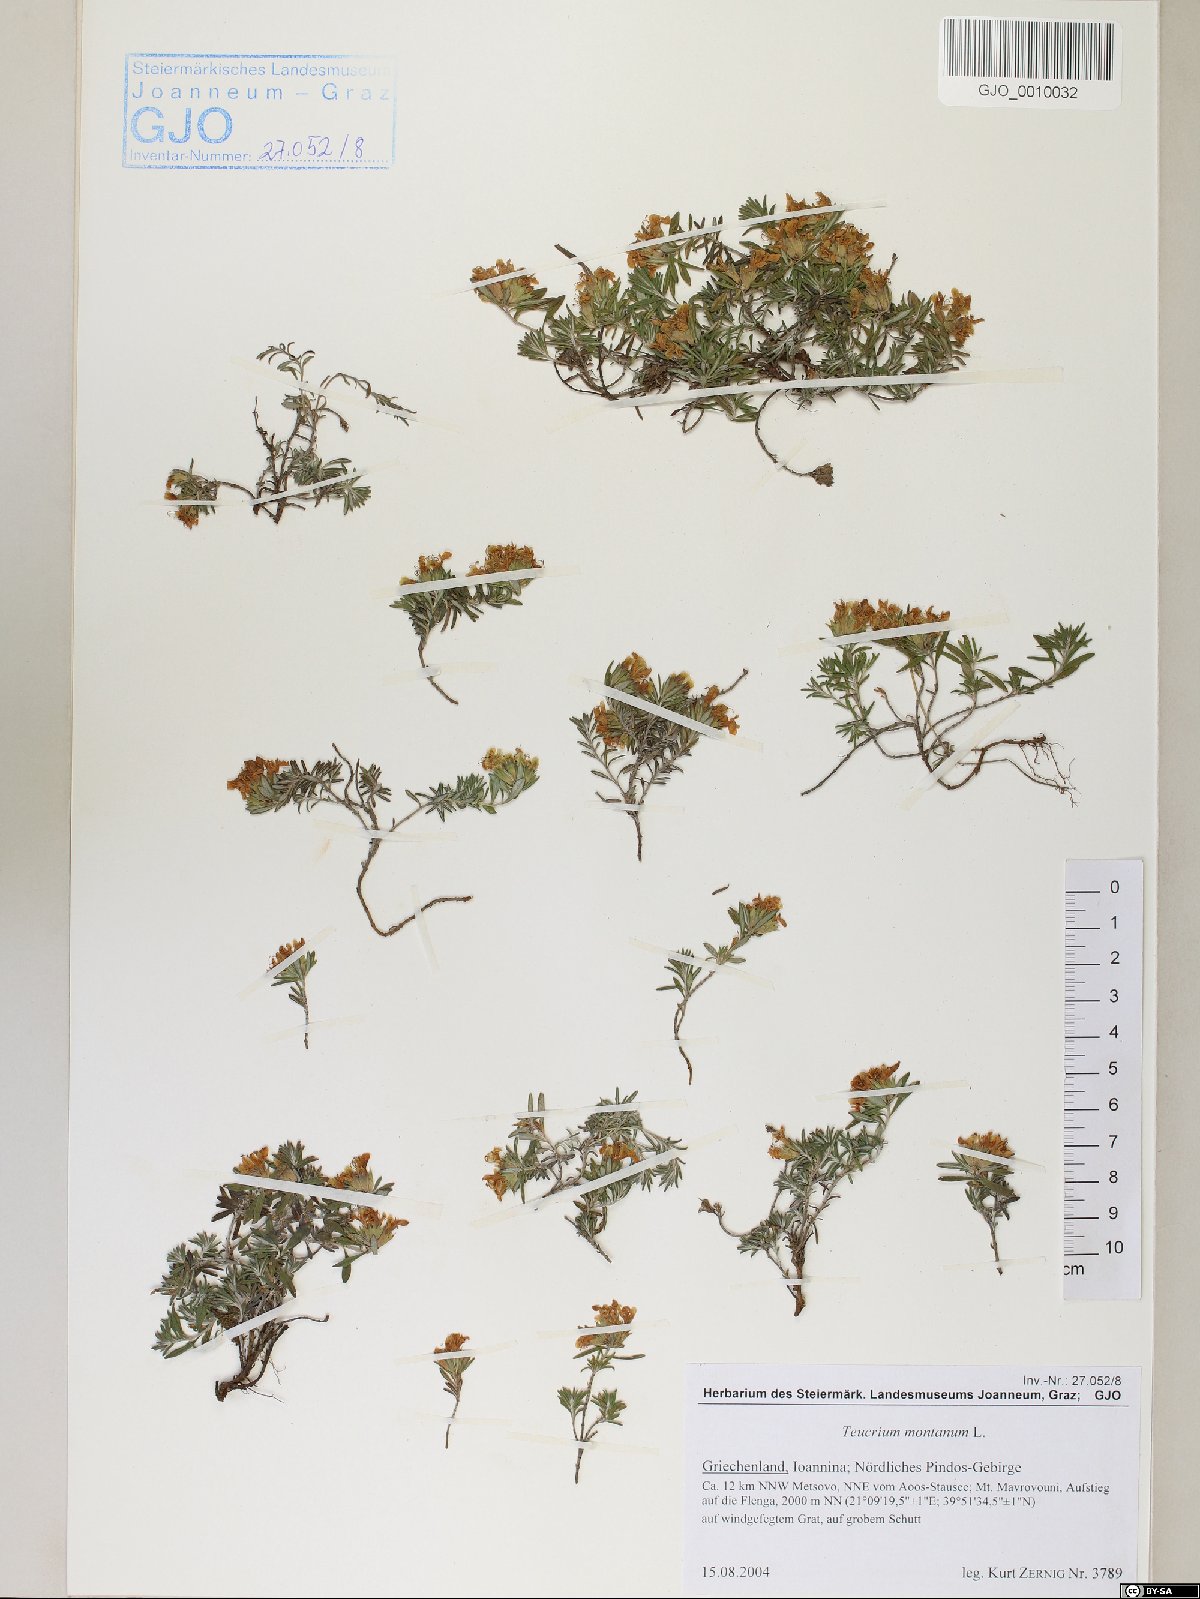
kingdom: Plantae
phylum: Tracheophyta
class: Magnoliopsida
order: Lamiales
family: Lamiaceae
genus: Teucrium
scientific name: Teucrium montanum
